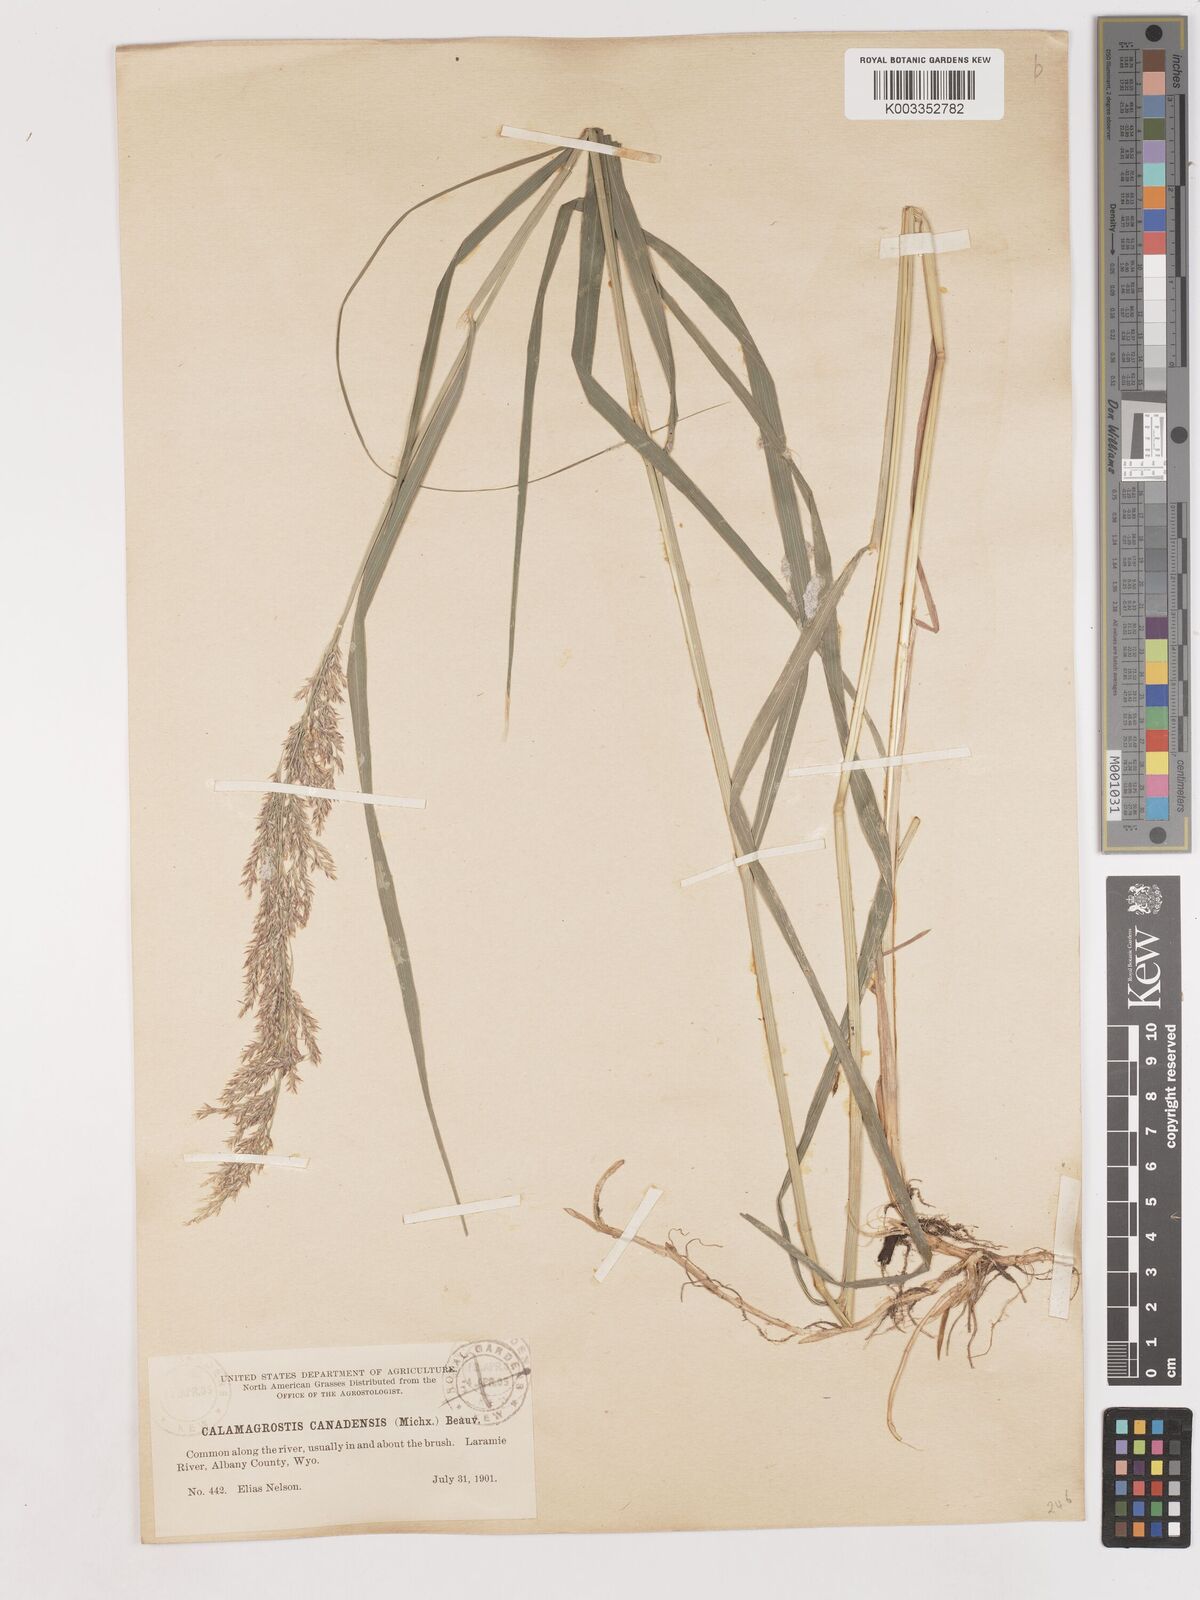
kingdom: Plantae
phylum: Tracheophyta
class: Liliopsida
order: Poales
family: Poaceae
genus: Calamagrostis
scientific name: Calamagrostis canadensis
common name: Canada bluejoint
